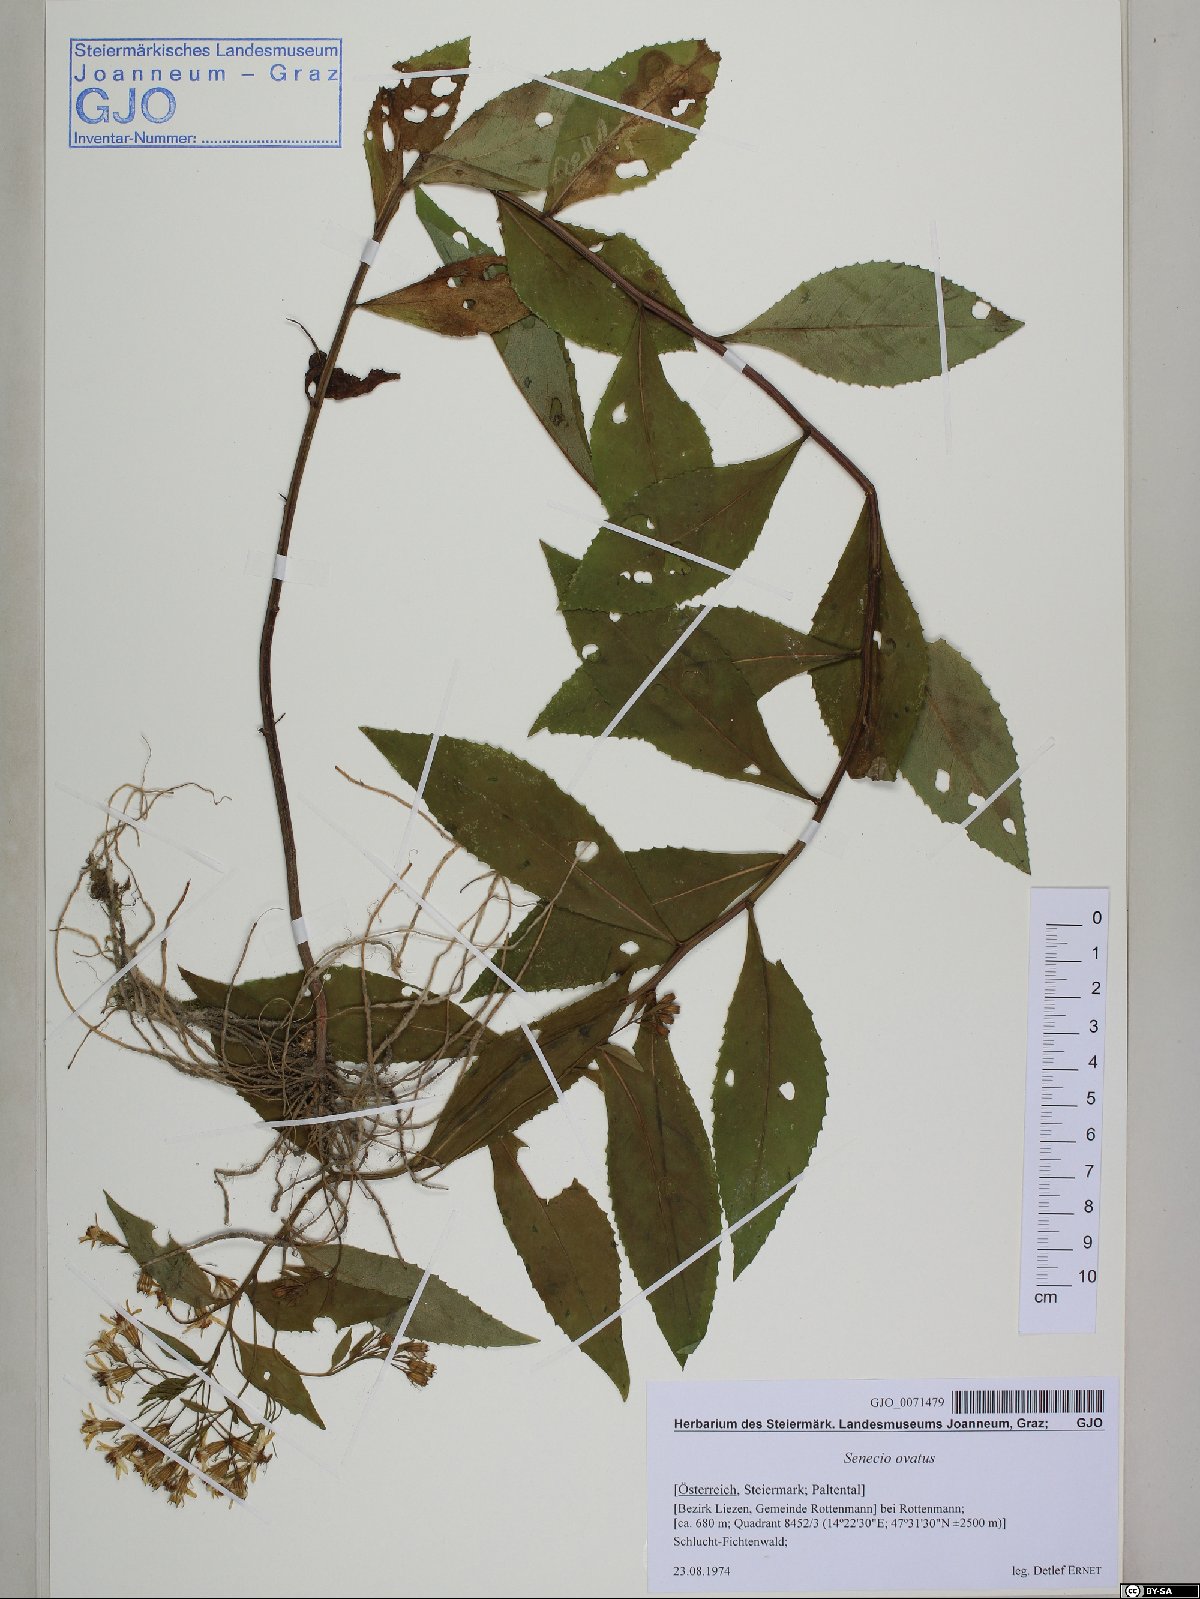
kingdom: Plantae
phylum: Tracheophyta
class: Magnoliopsida
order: Asterales
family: Asteraceae
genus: Senecio
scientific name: Senecio ovatus
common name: Wood ragwort
